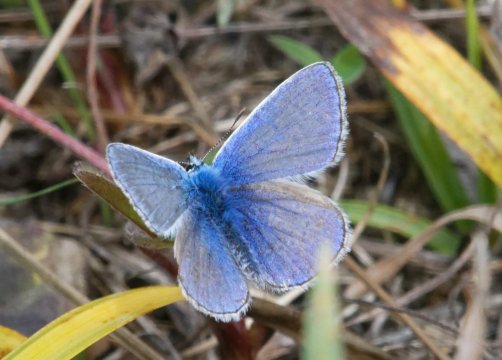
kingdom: Animalia
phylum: Arthropoda
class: Insecta
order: Lepidoptera
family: Lycaenidae
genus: Polyommatus
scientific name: Polyommatus icarus
